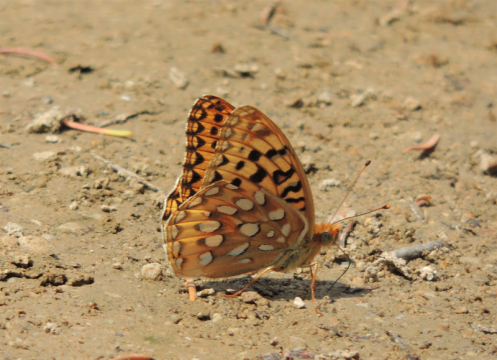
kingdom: Animalia
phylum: Arthropoda
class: Insecta
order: Lepidoptera
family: Nymphalidae
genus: Speyeria
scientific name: Speyeria zerene
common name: Zerene Fritillary
